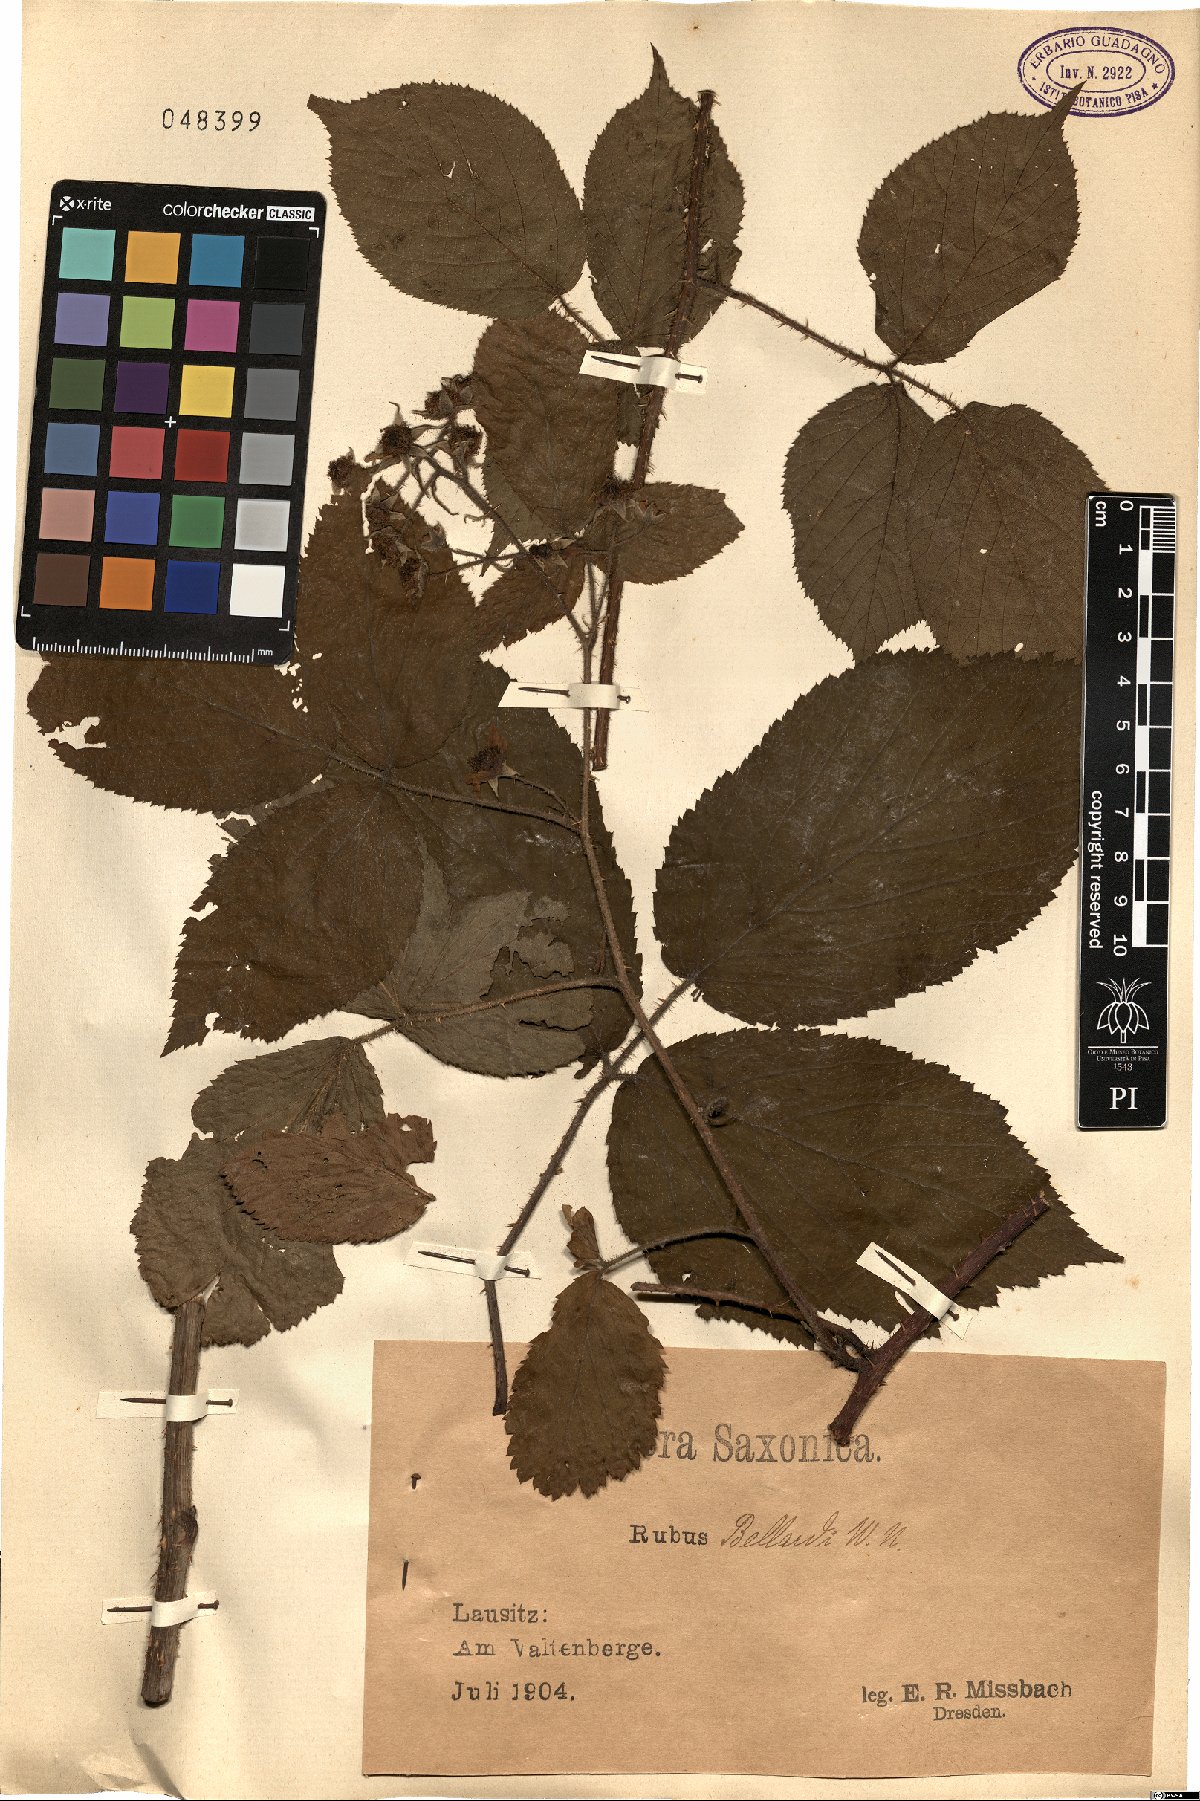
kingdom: Plantae
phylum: Tracheophyta
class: Magnoliopsida
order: Rosales
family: Rosaceae
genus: Rubus
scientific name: Rubus nigricans
